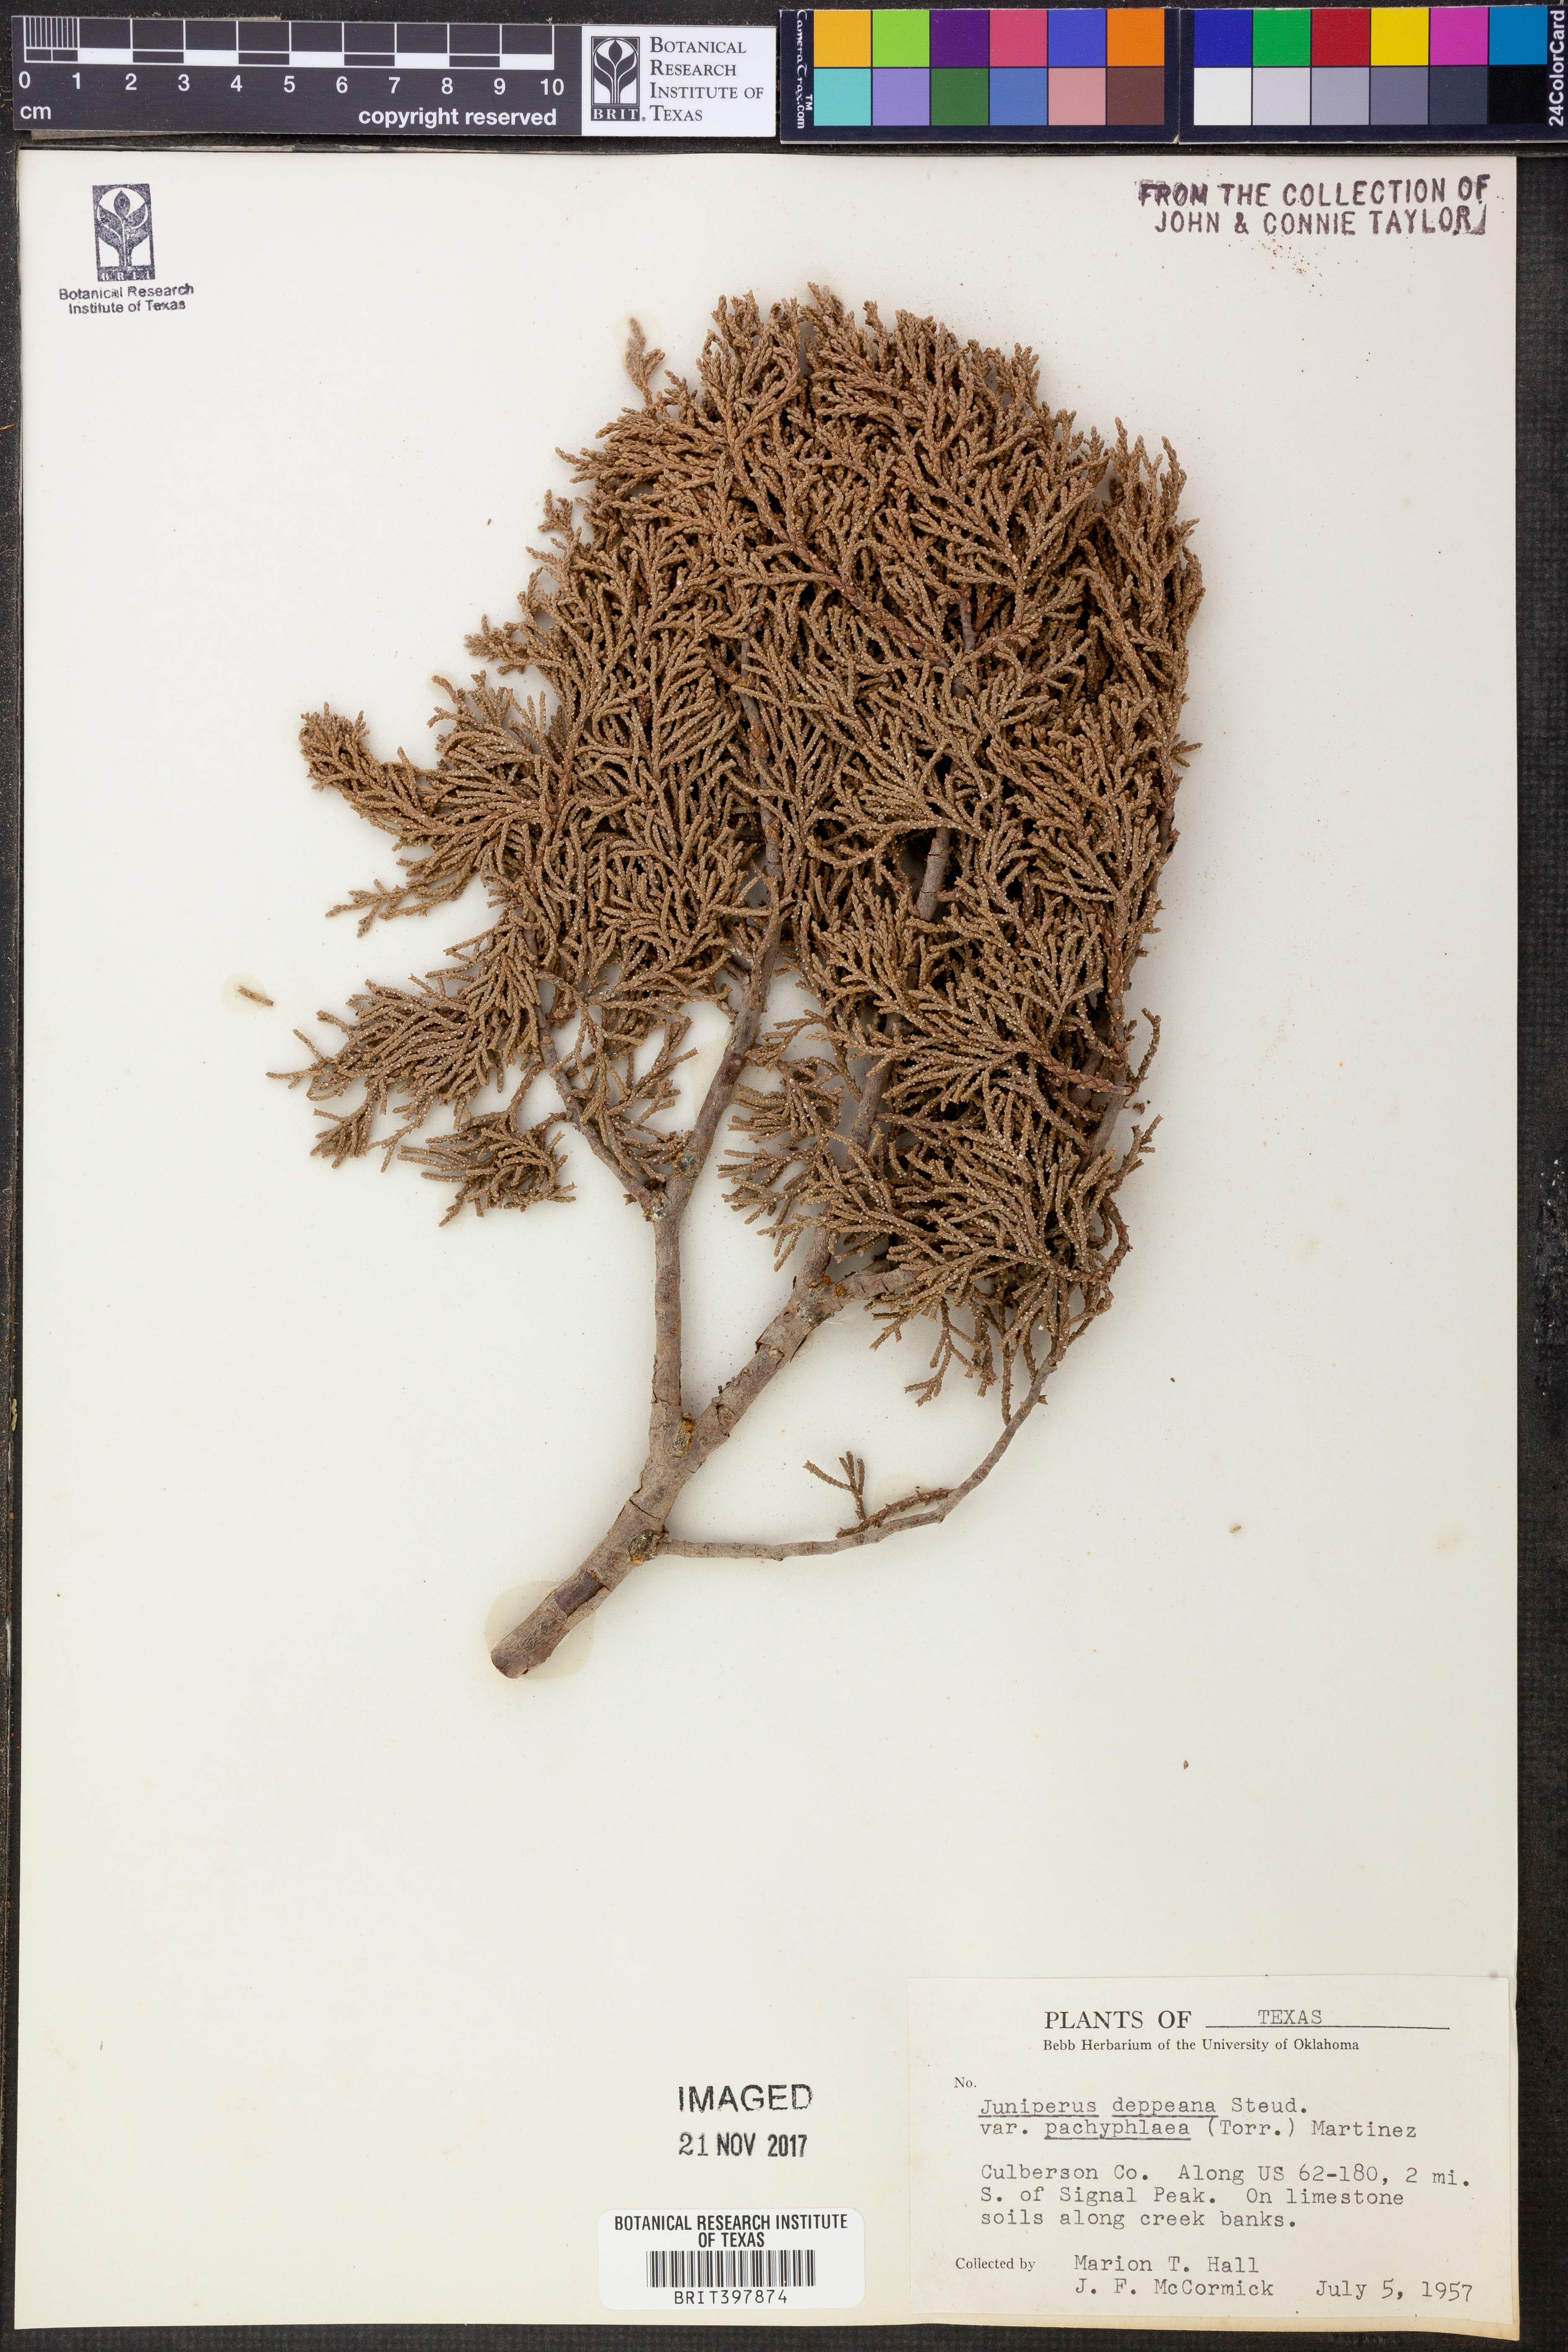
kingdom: Plantae
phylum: Tracheophyta
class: Pinopsida
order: Pinales
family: Cupressaceae
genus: Juniperus
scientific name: Juniperus deppeana
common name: Alligator juniper
